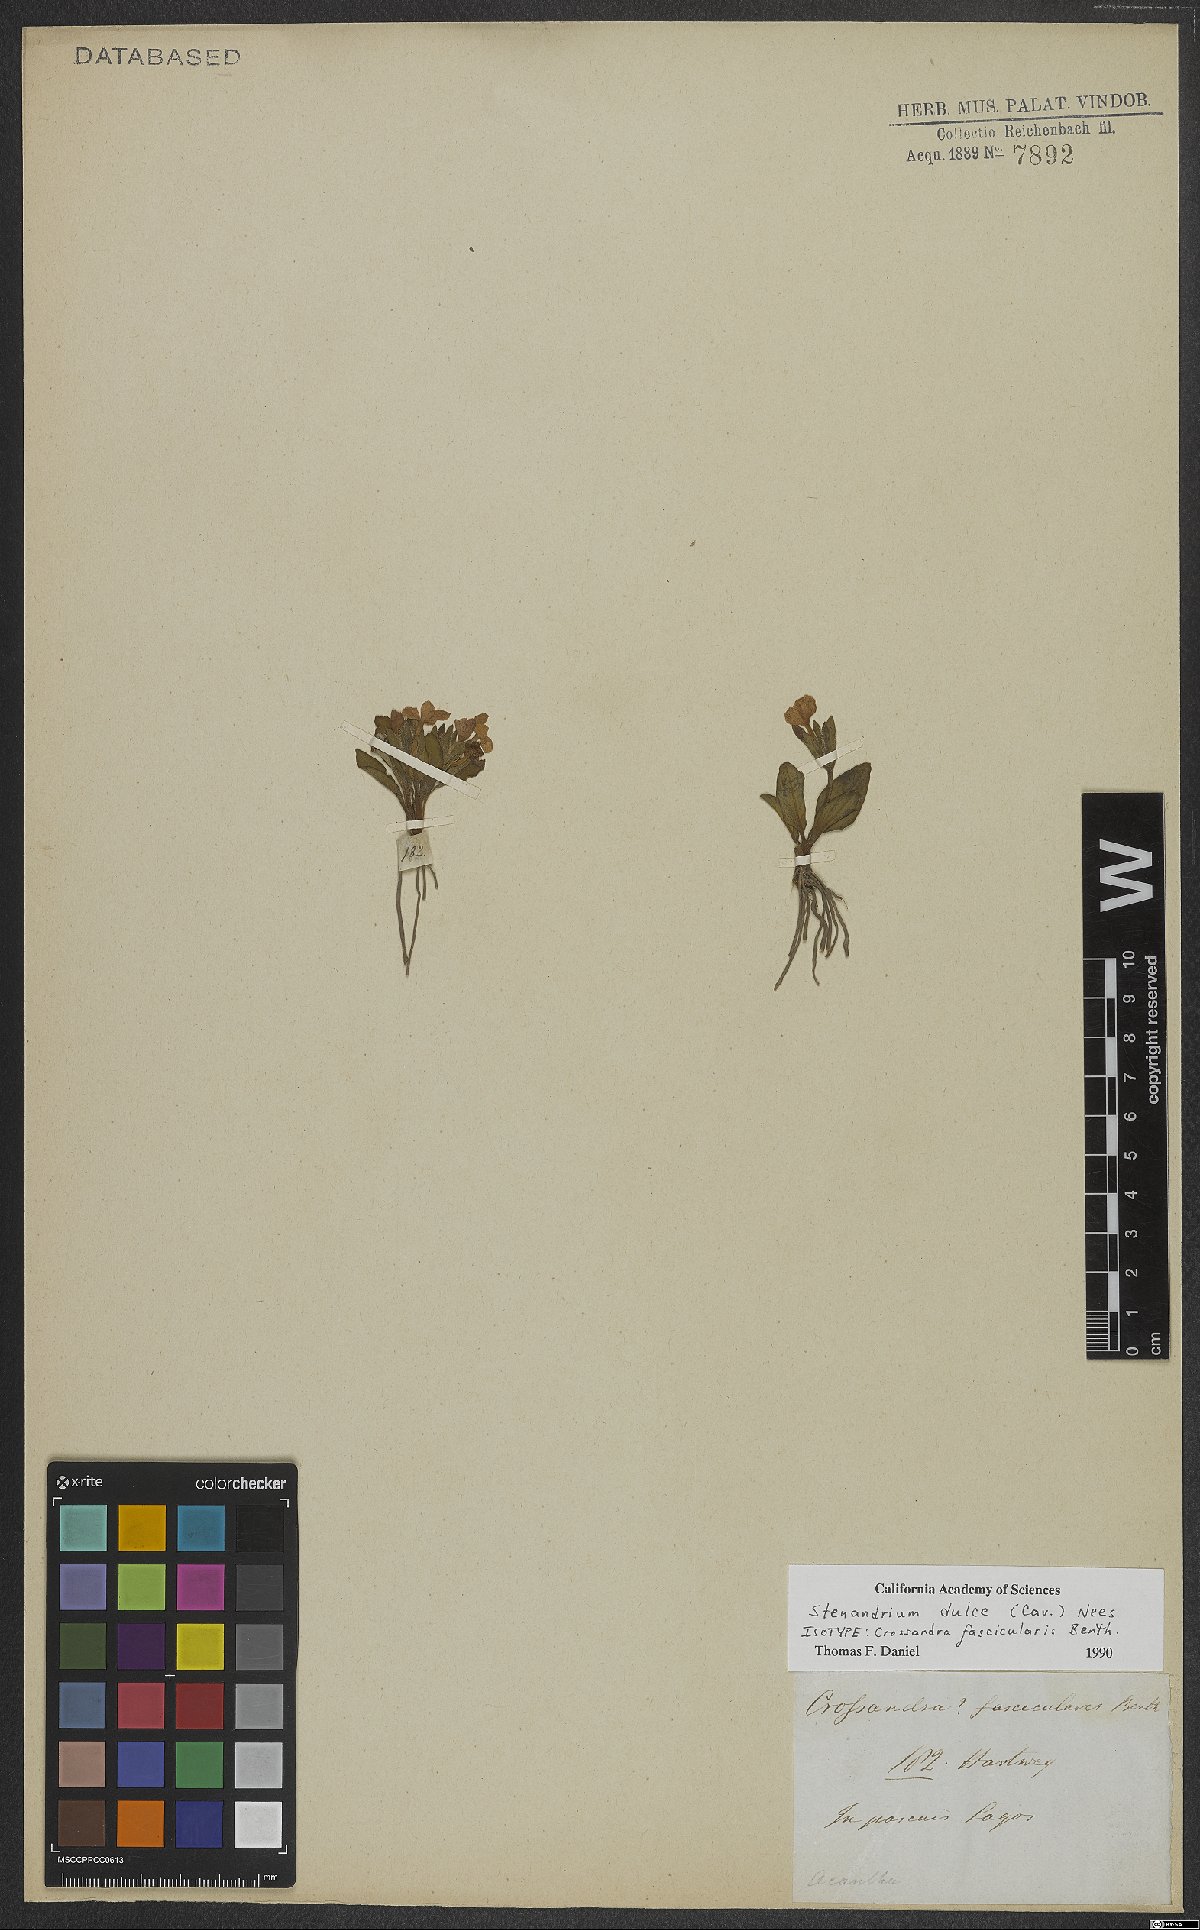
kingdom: Plantae
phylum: Tracheophyta
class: Magnoliopsida
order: Lamiales
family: Acanthaceae
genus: Stenandrium
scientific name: Stenandrium dulce
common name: Pinklet
